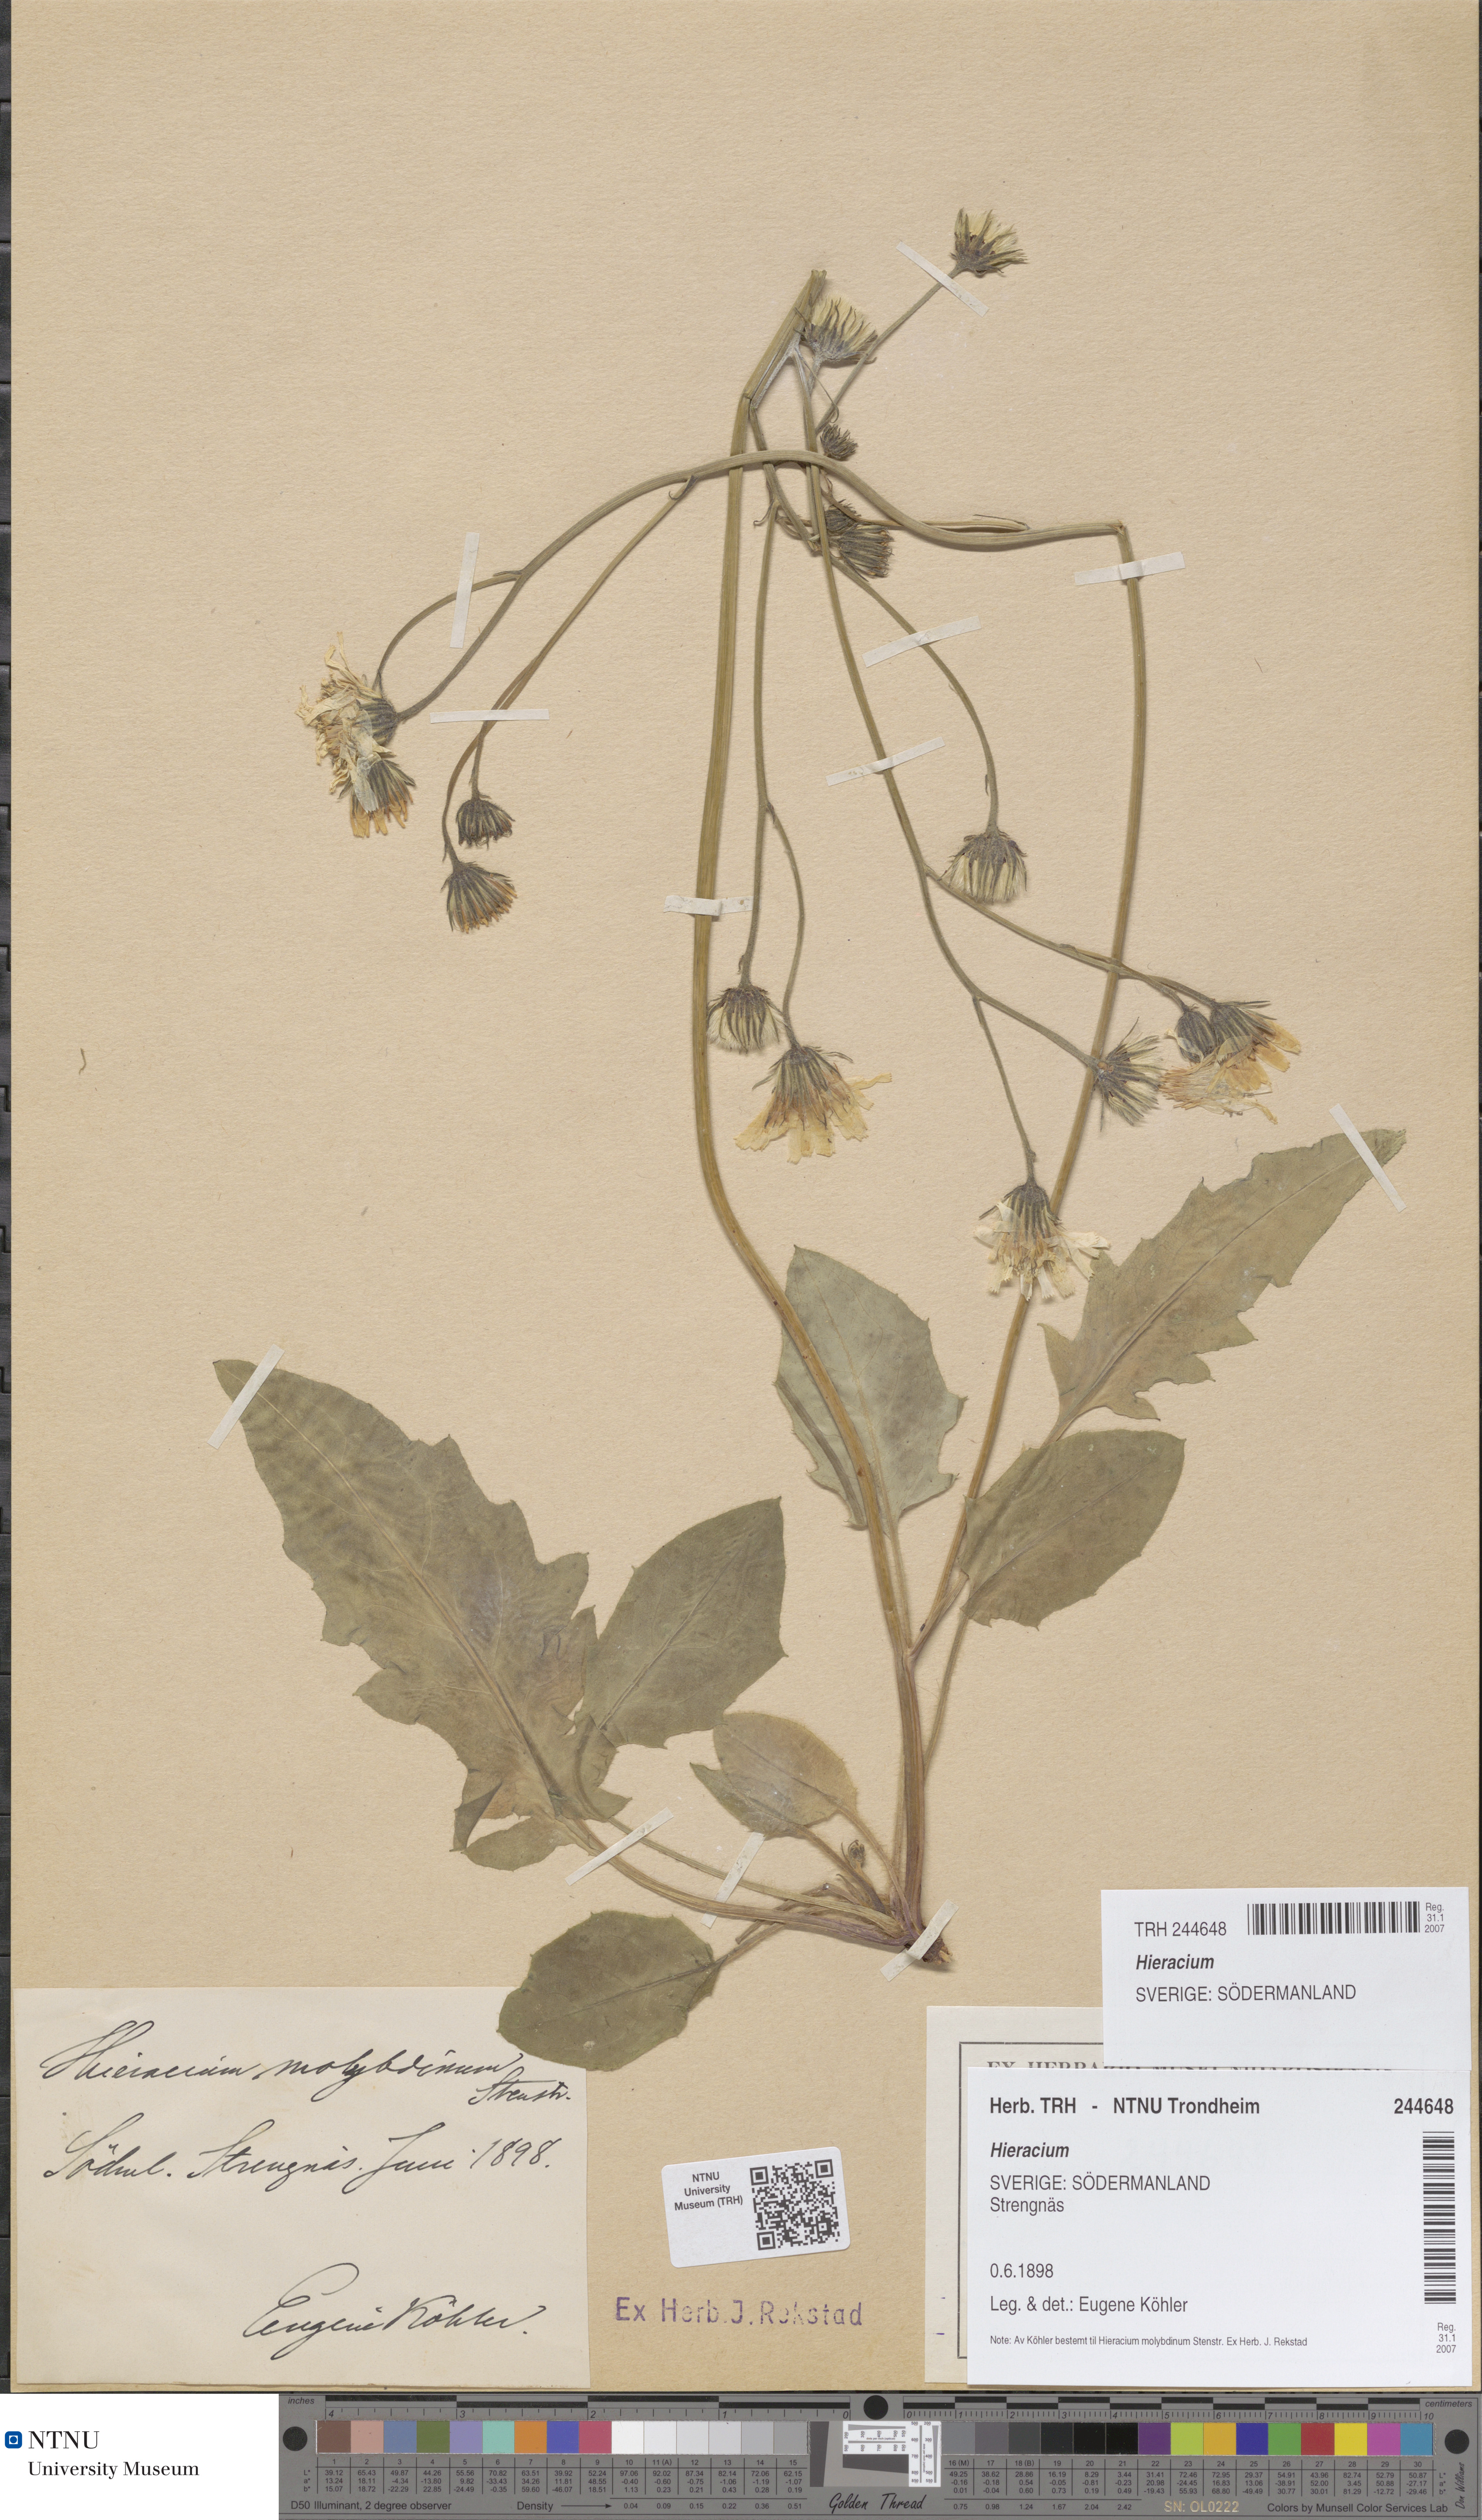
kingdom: Plantae
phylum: Tracheophyta
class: Magnoliopsida
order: Asterales
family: Asteraceae
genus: Hieracium
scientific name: Hieracium
